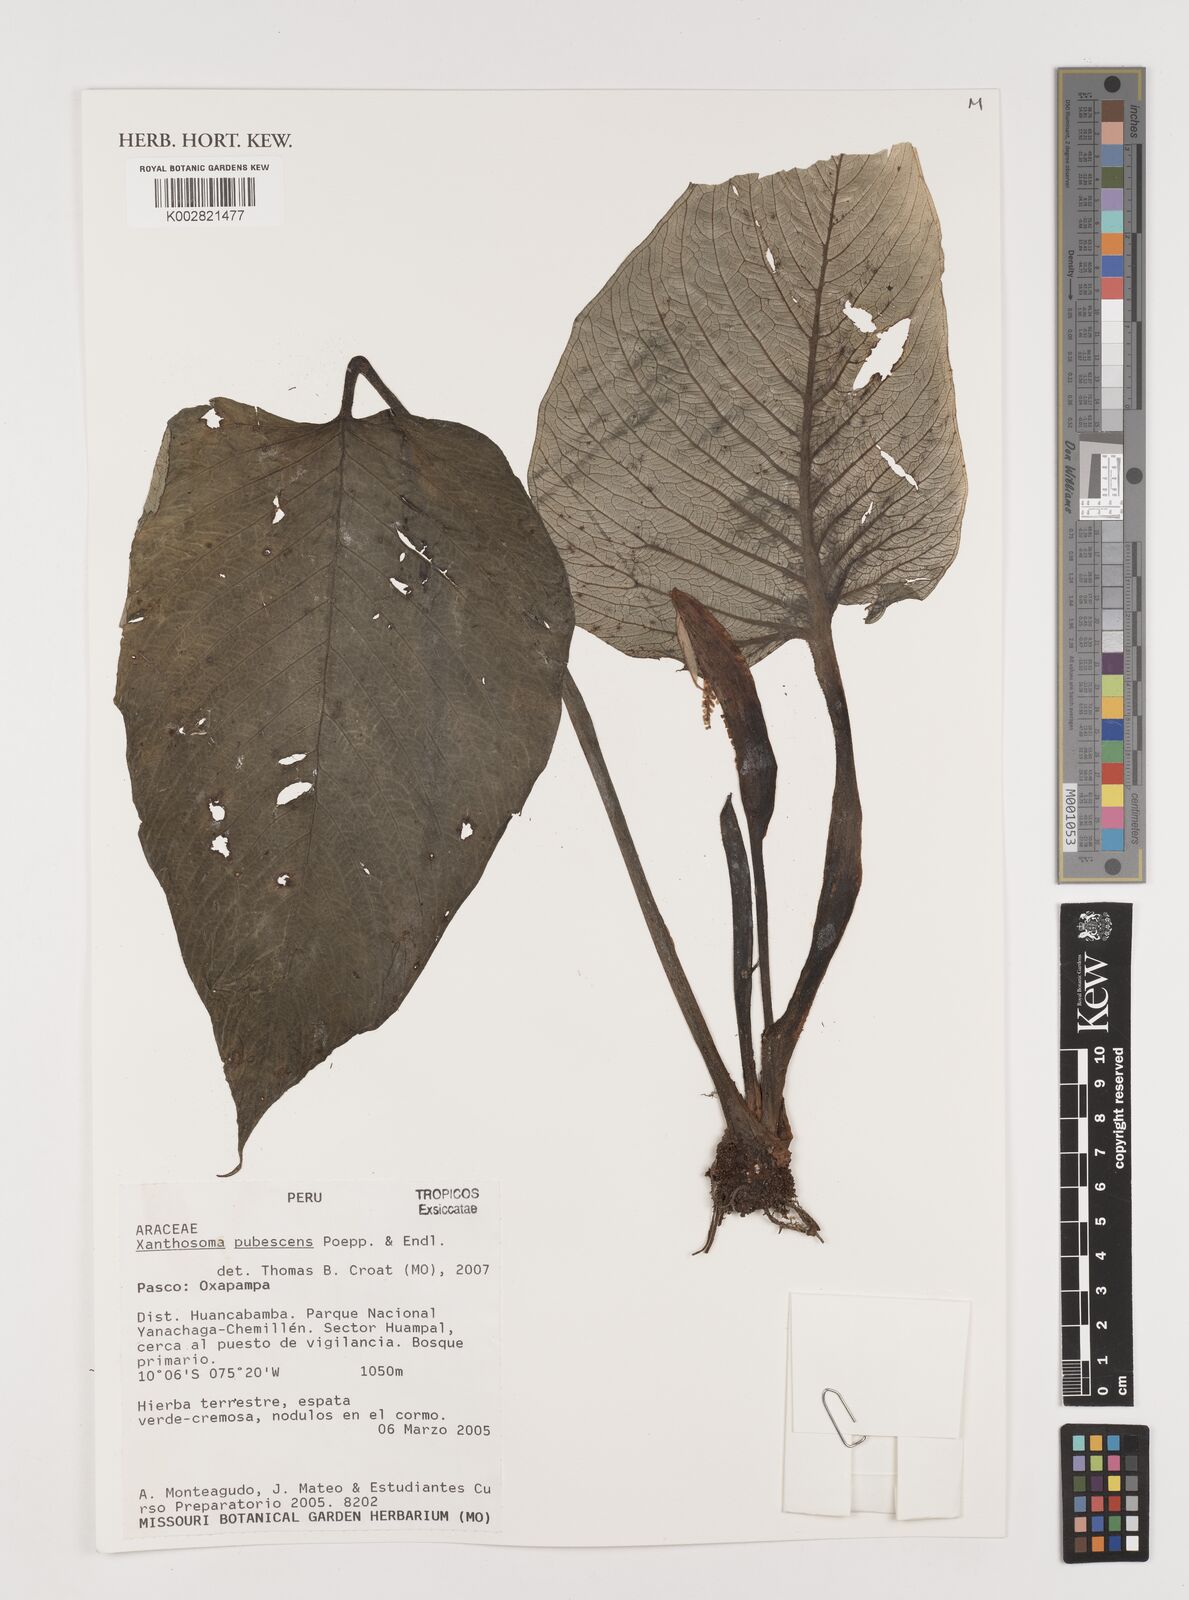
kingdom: Plantae
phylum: Tracheophyta
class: Liliopsida
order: Alismatales
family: Araceae
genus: Xanthosoma
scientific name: Xanthosoma pubescens
